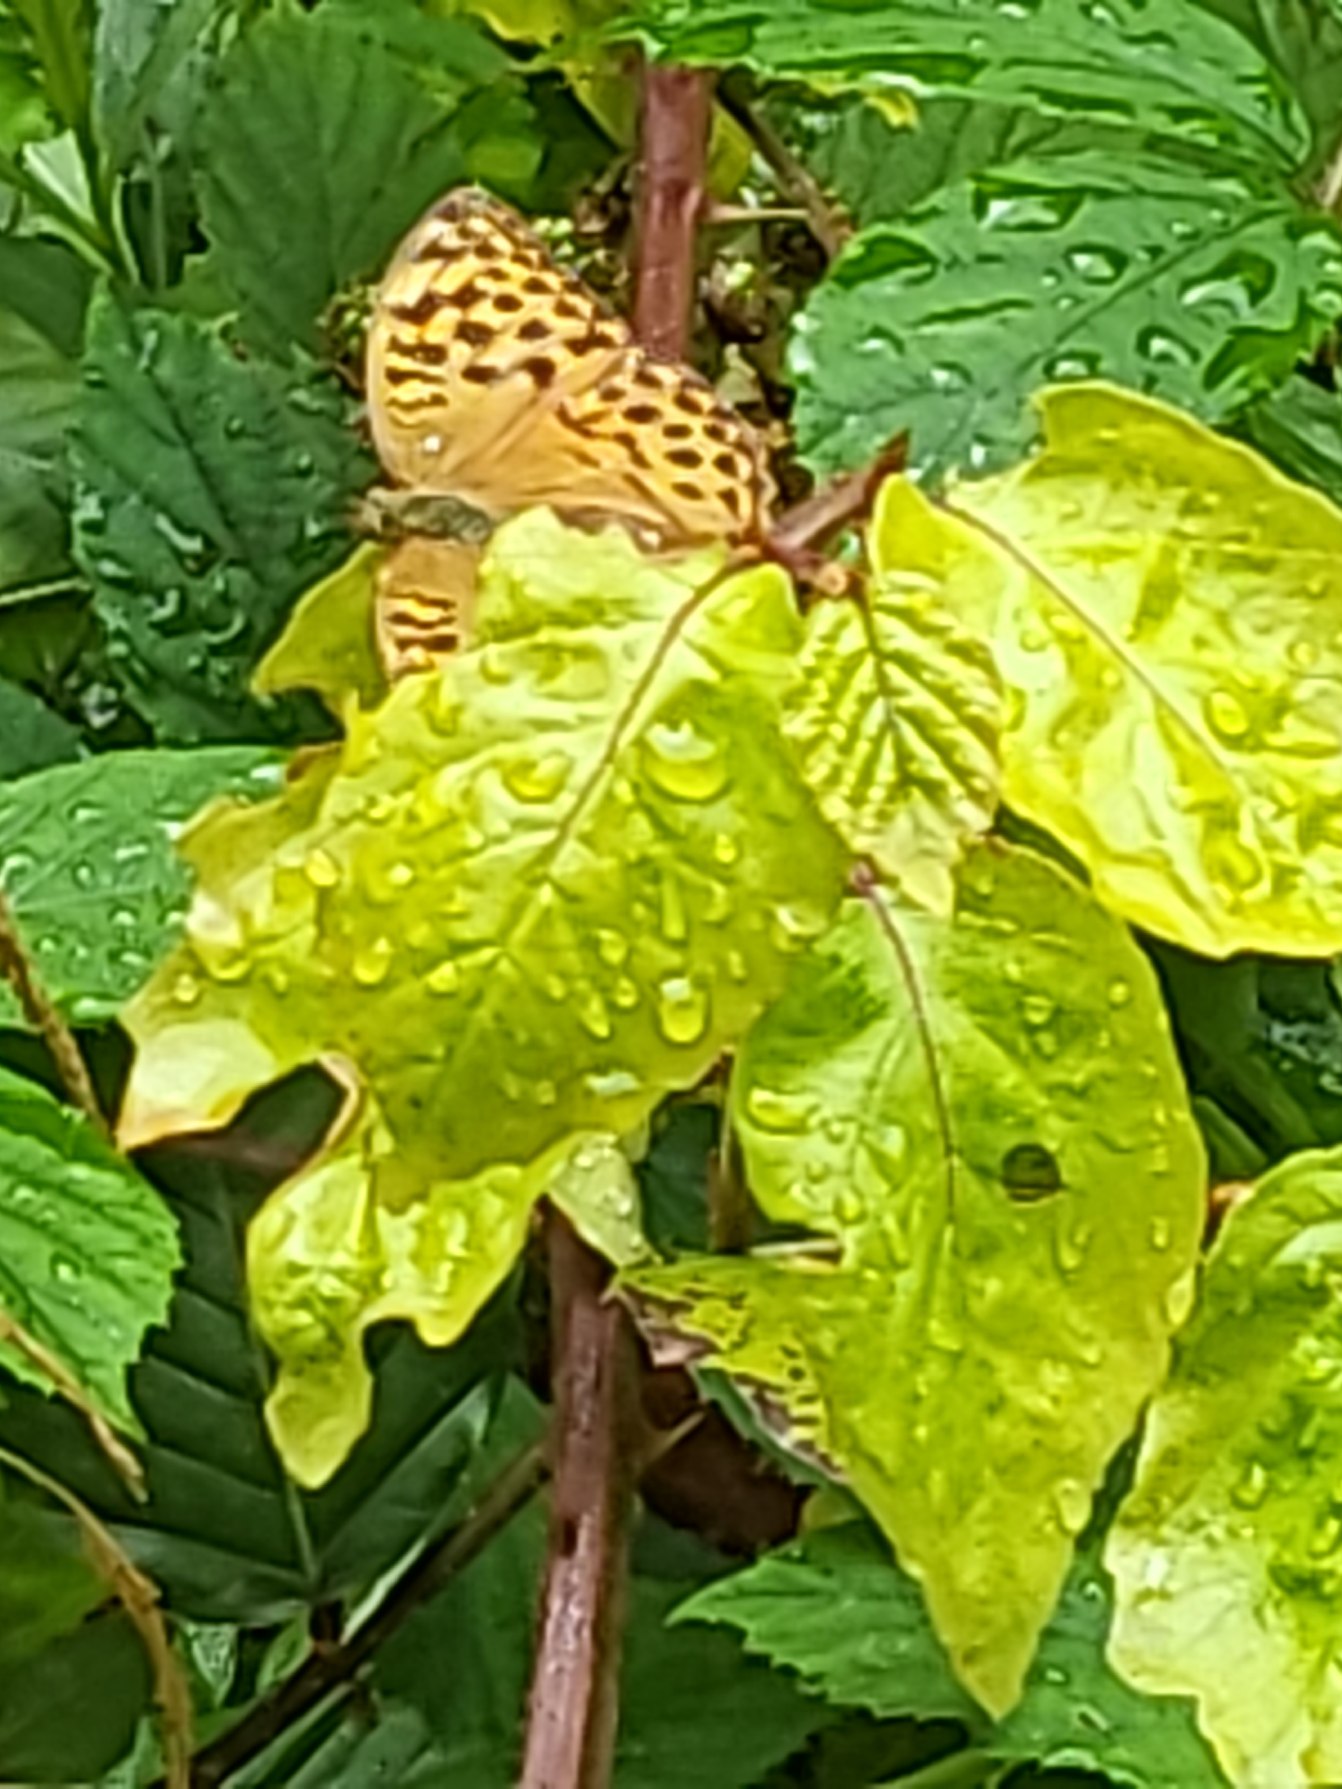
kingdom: Animalia
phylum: Arthropoda
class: Insecta
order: Lepidoptera
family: Nymphalidae
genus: Argynnis
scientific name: Argynnis paphia
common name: Kejserkåbe
